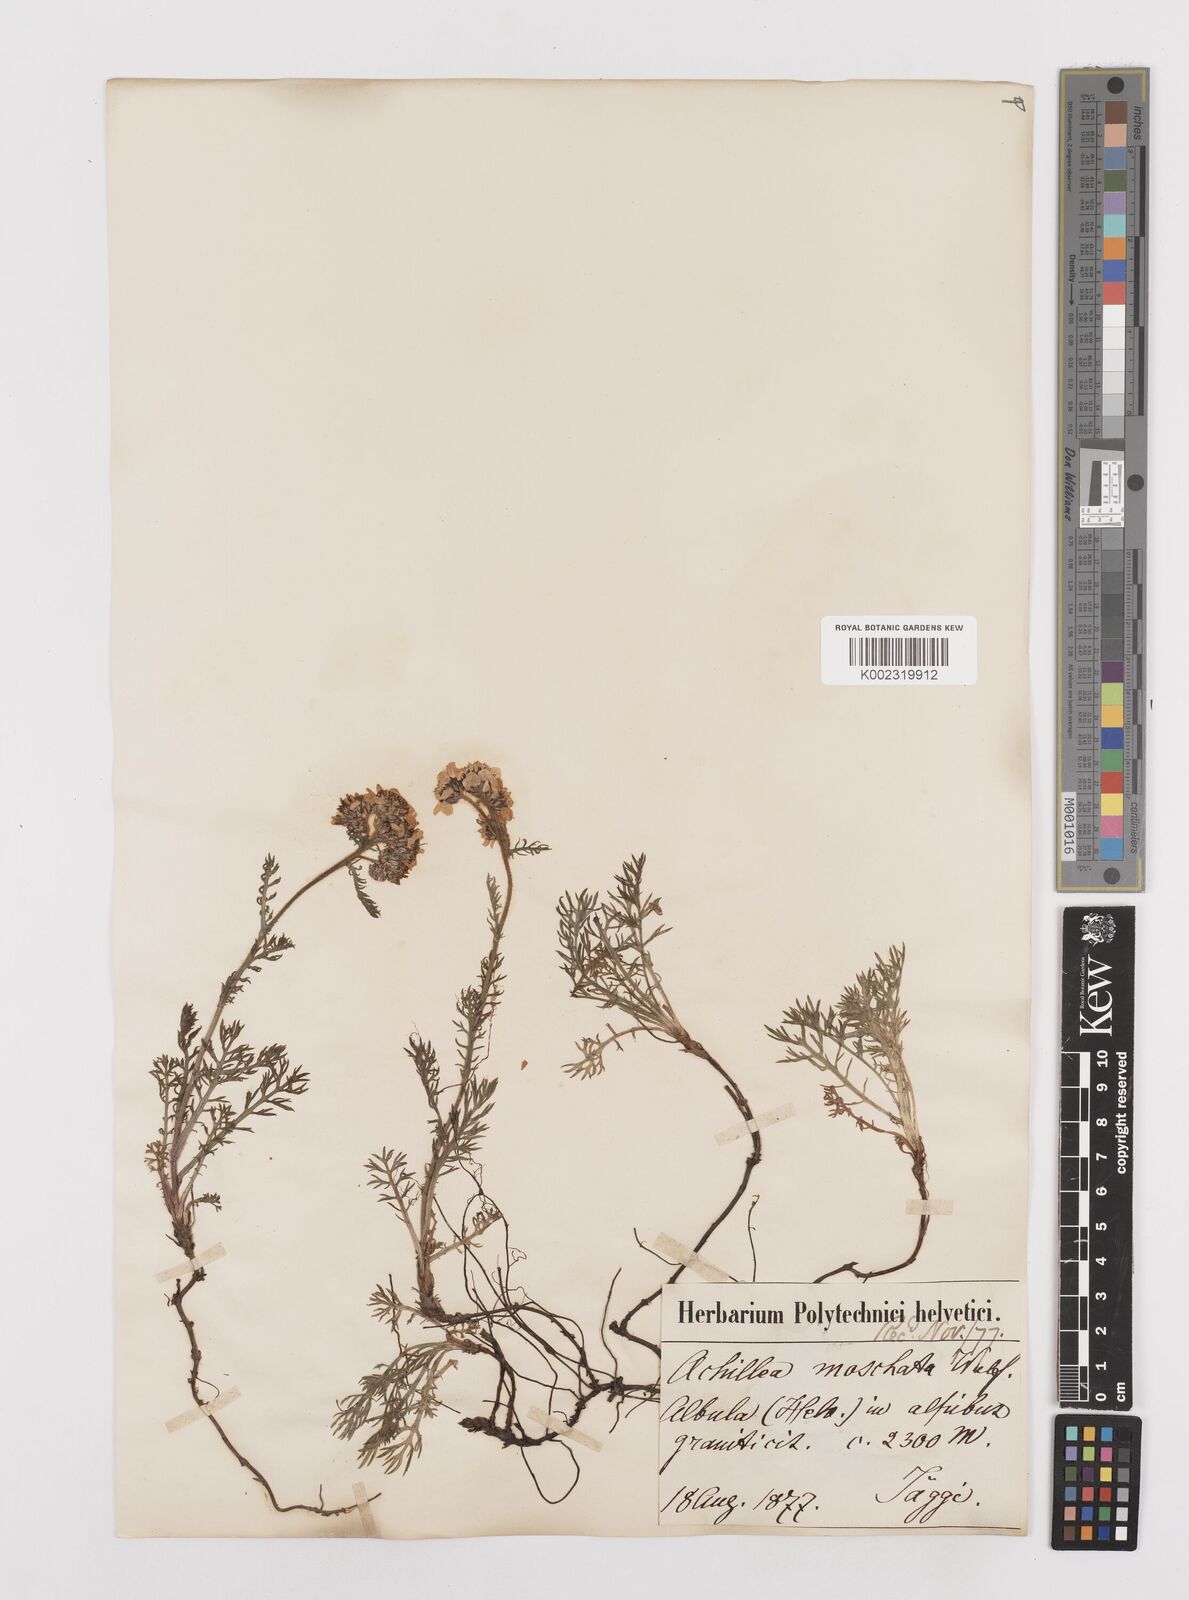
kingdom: Plantae
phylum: Tracheophyta
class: Magnoliopsida
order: Asterales
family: Asteraceae
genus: Achillea
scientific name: Achillea erba-rotta
